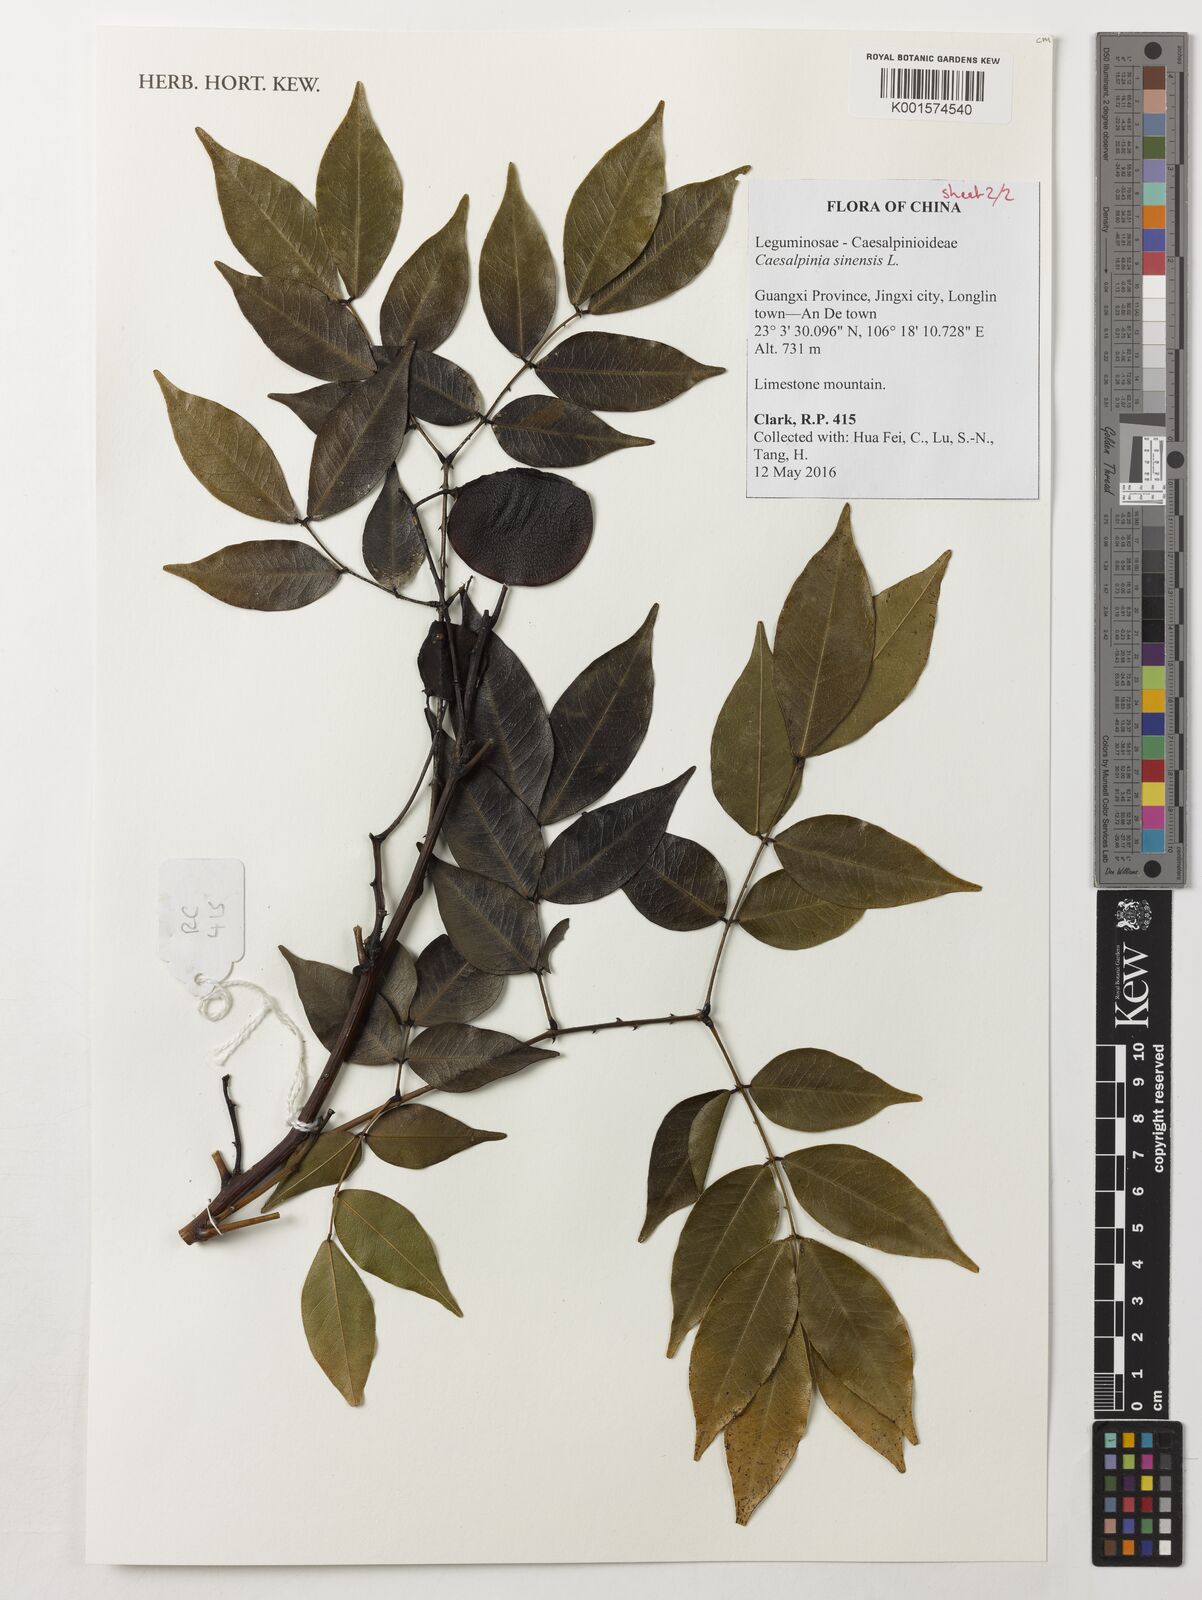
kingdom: Plantae
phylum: Tracheophyta
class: Magnoliopsida
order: Fabales
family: Fabaceae
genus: Mezoneuron
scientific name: Mezoneuron sinense
